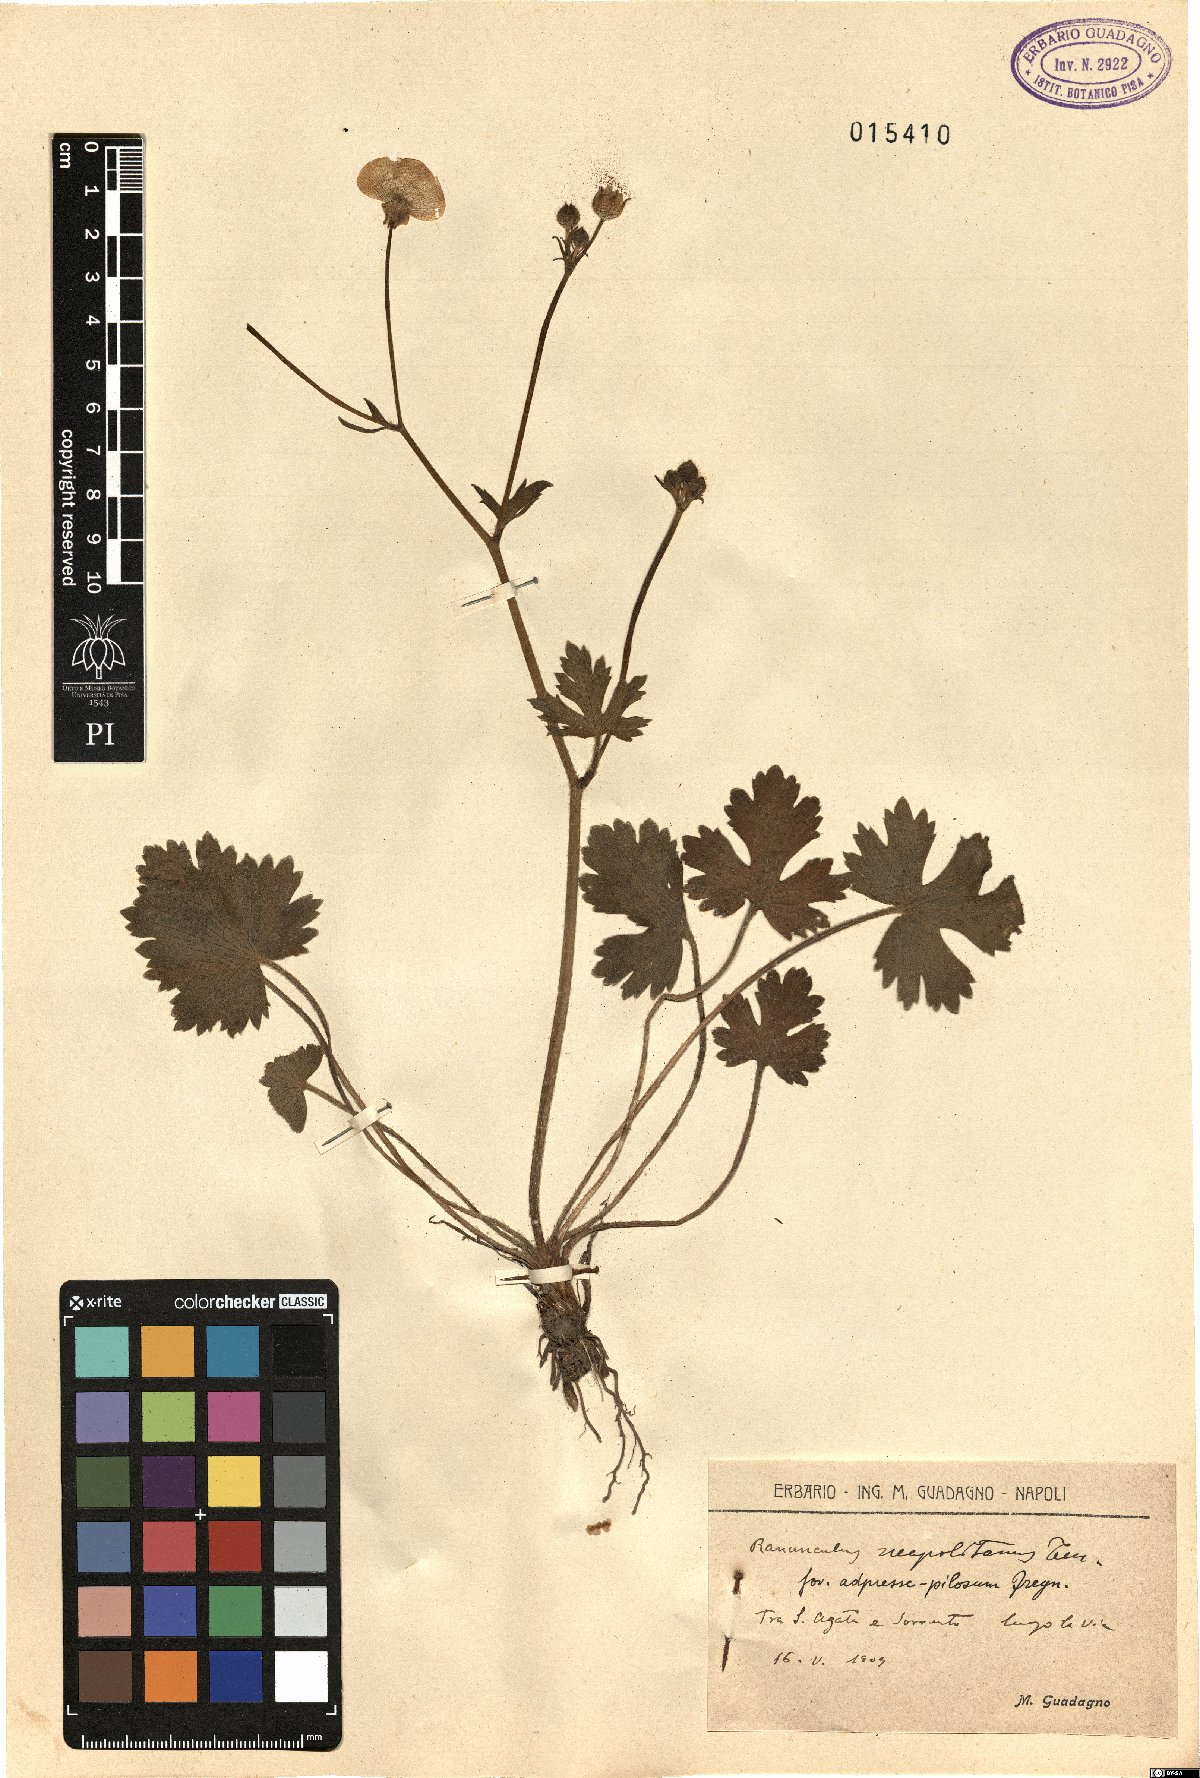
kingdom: Plantae
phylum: Tracheophyta
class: Magnoliopsida
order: Ranunculales
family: Ranunculaceae
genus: Ranunculus
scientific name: Ranunculus neapolitanus
